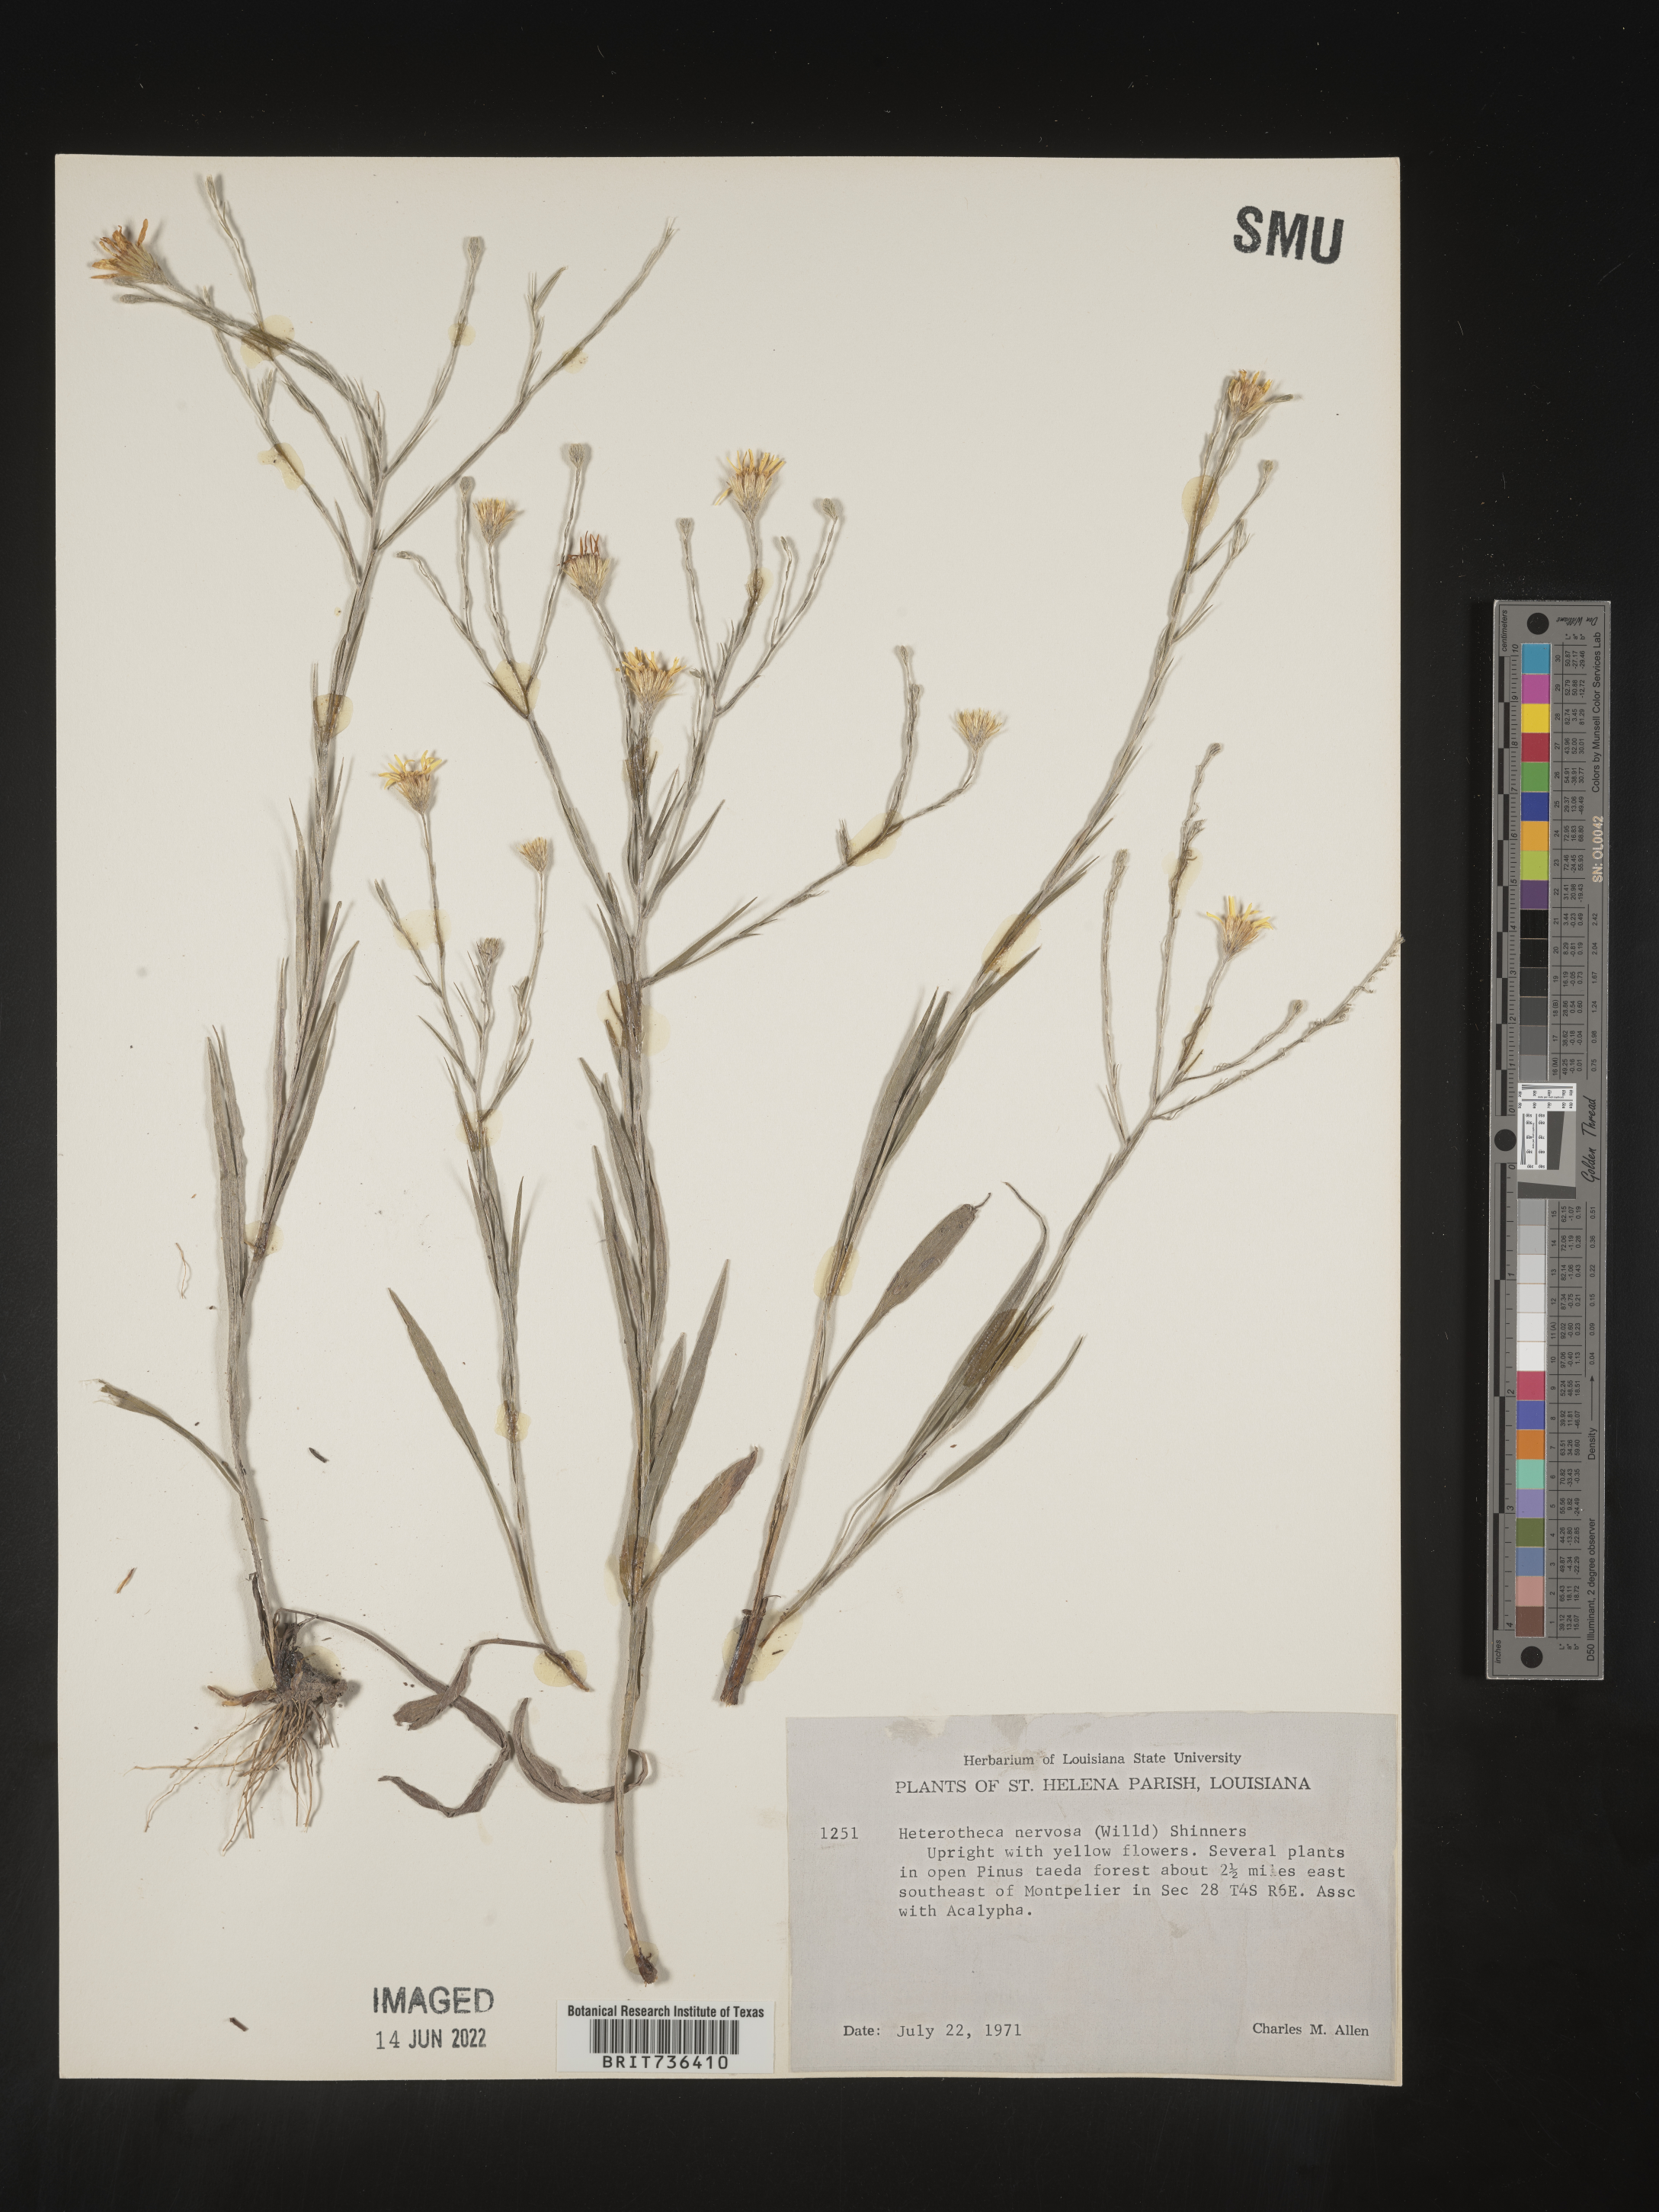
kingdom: Plantae
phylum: Tracheophyta
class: Magnoliopsida
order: Asterales
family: Asteraceae
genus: Pityopsis
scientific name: Pityopsis tenuifolia
